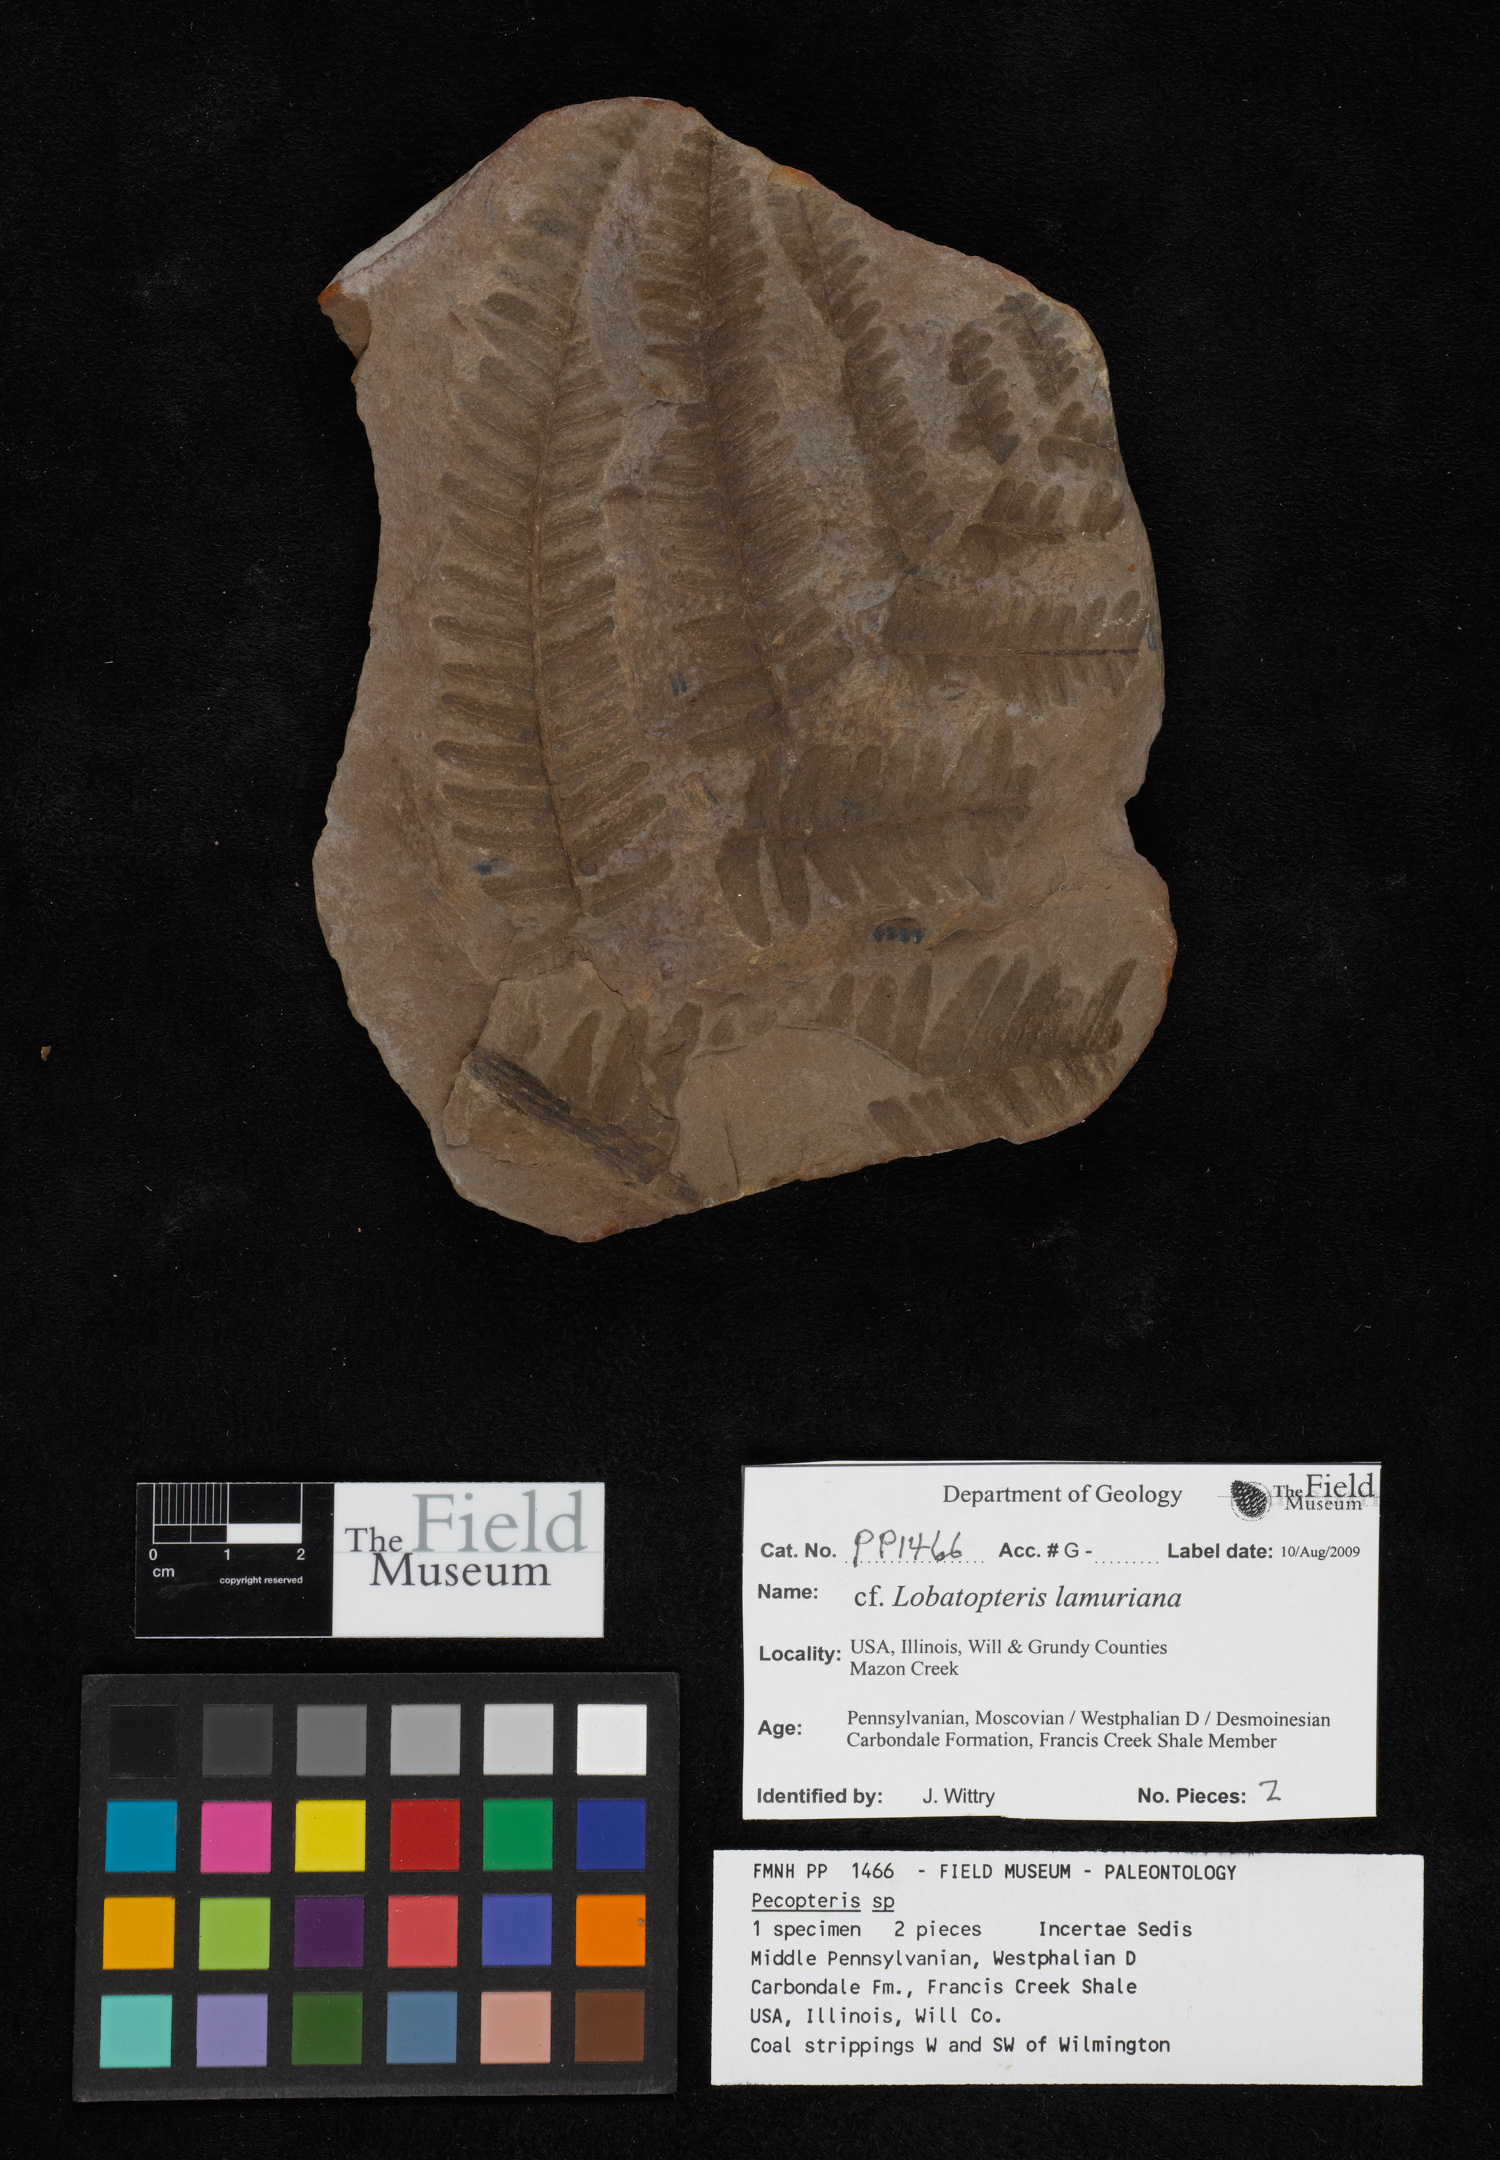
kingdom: Plantae
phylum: Tracheophyta
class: Polypodiopsida
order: Marattiales
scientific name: Marattiales
